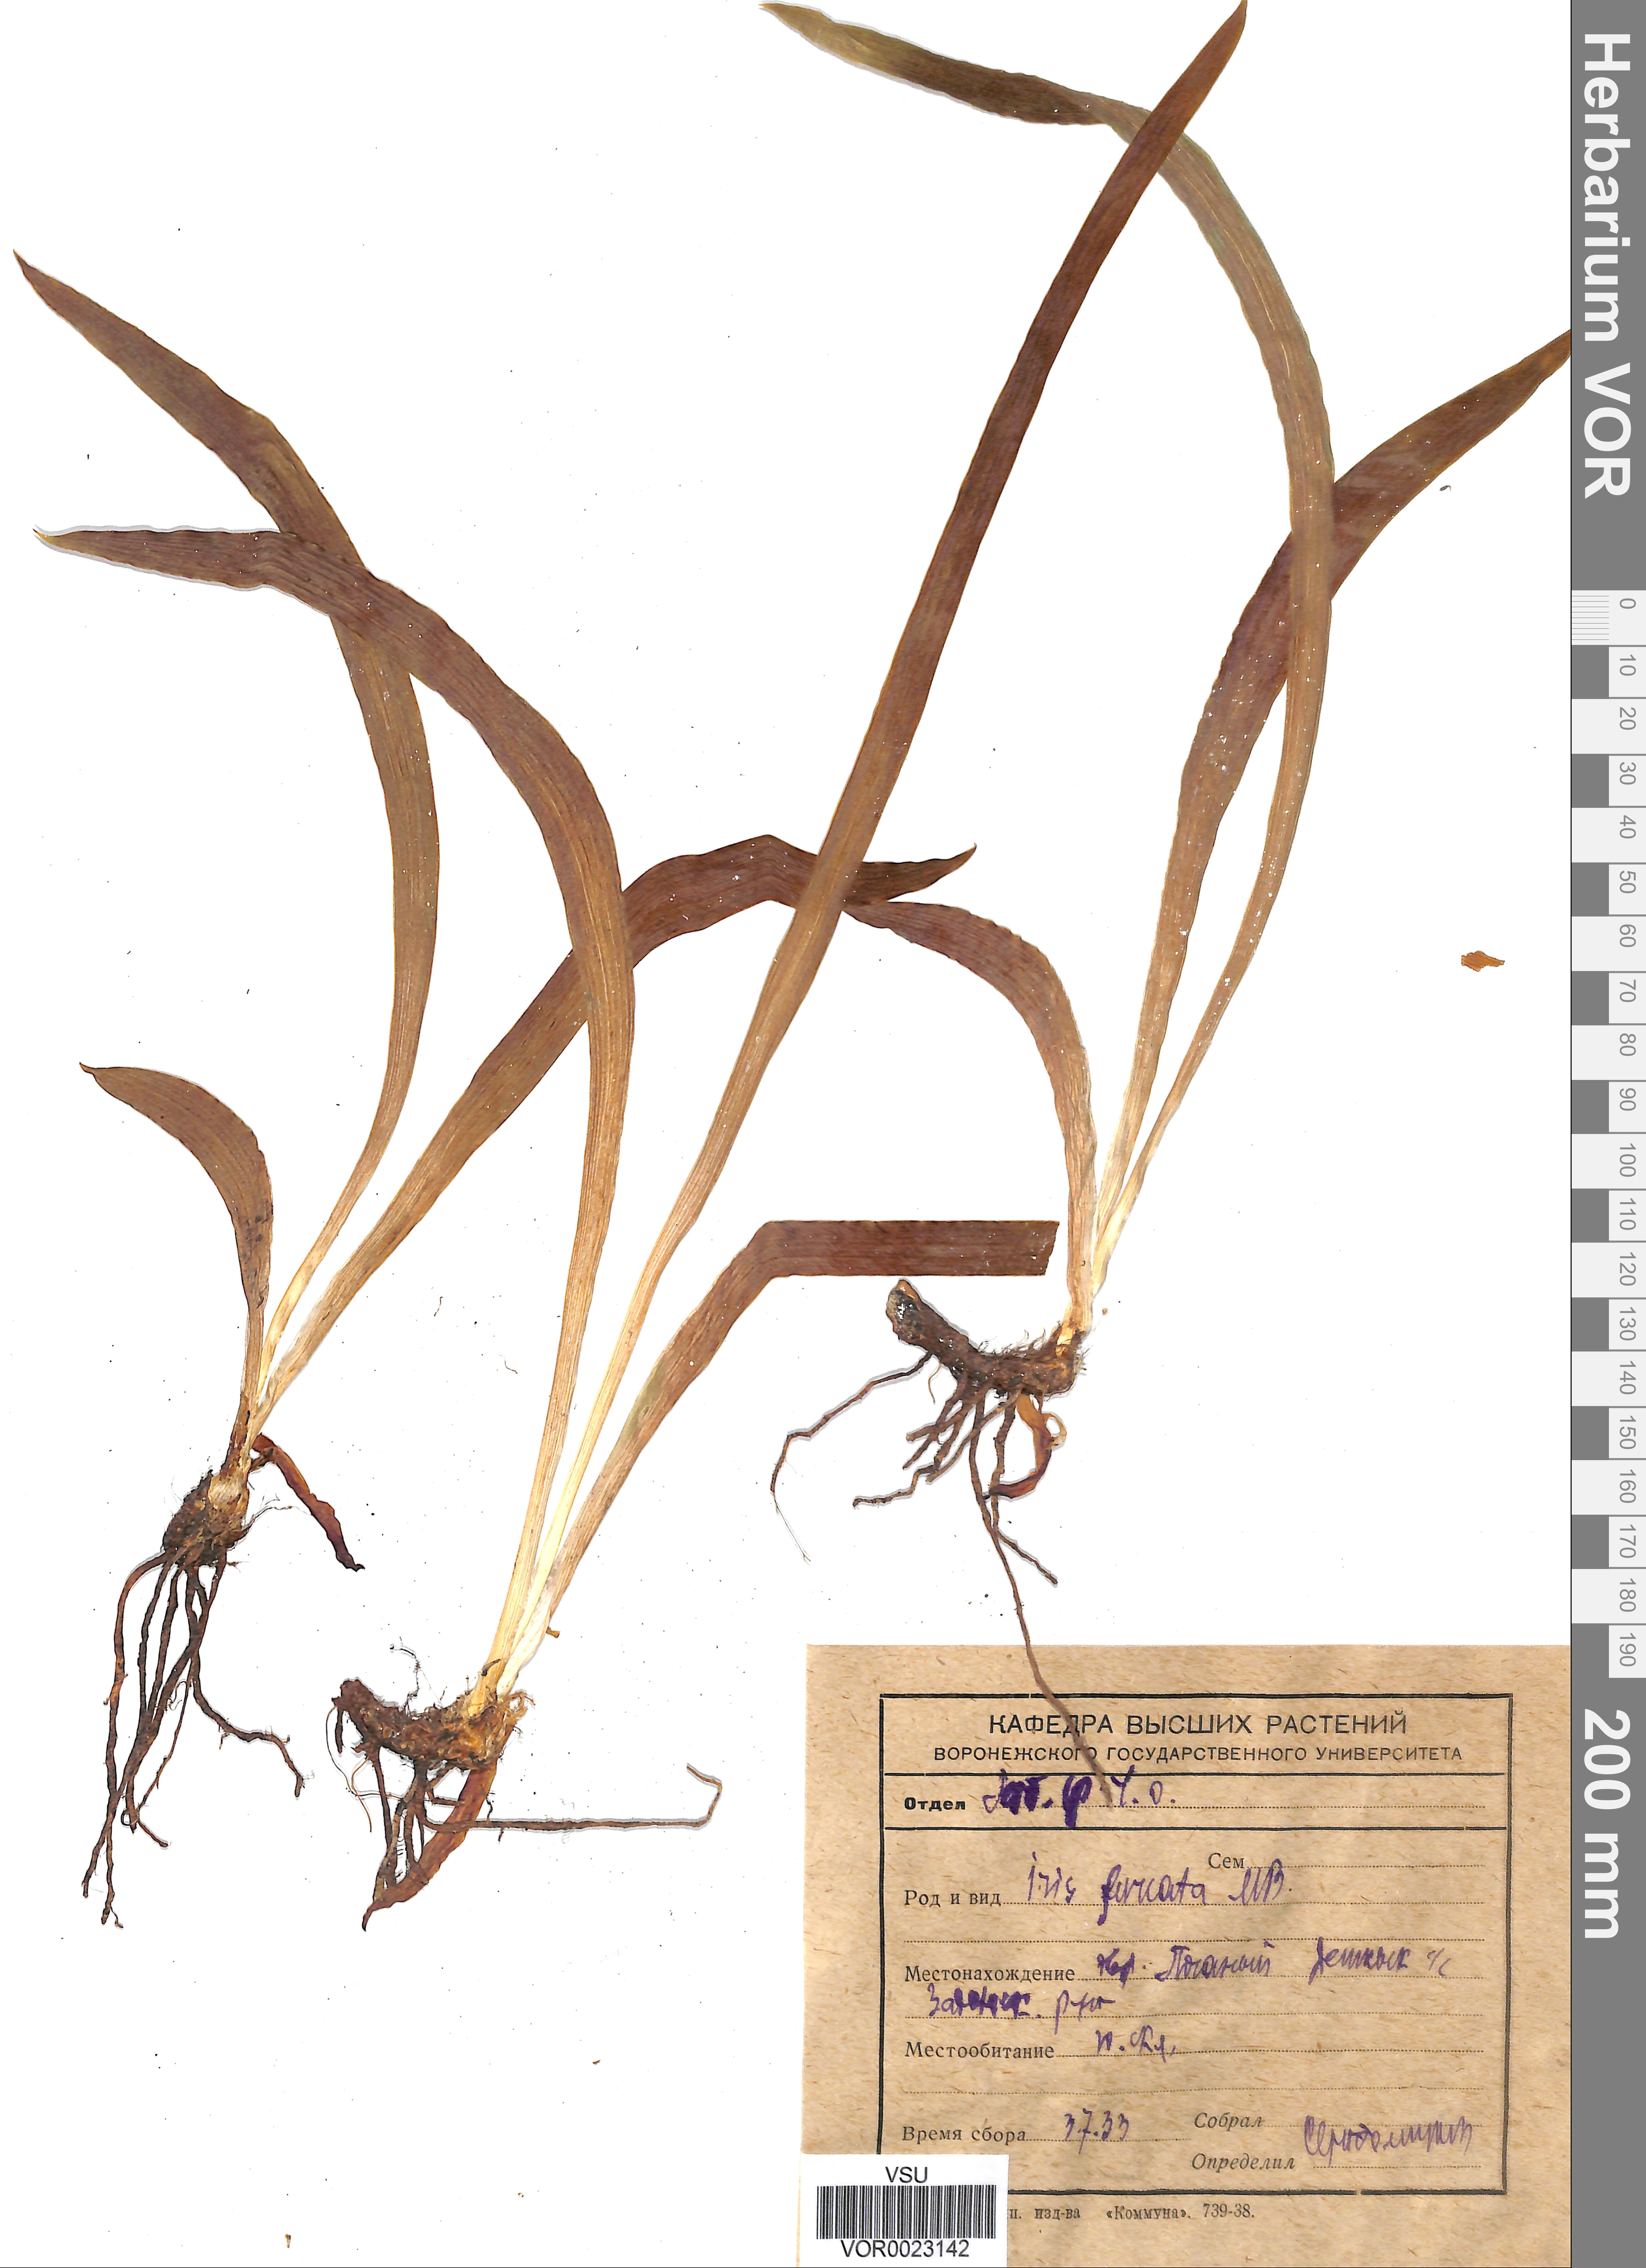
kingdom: Plantae
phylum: Tracheophyta
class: Liliopsida
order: Asparagales
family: Iridaceae
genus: Iris
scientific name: Iris aphylla
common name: Stool iris
